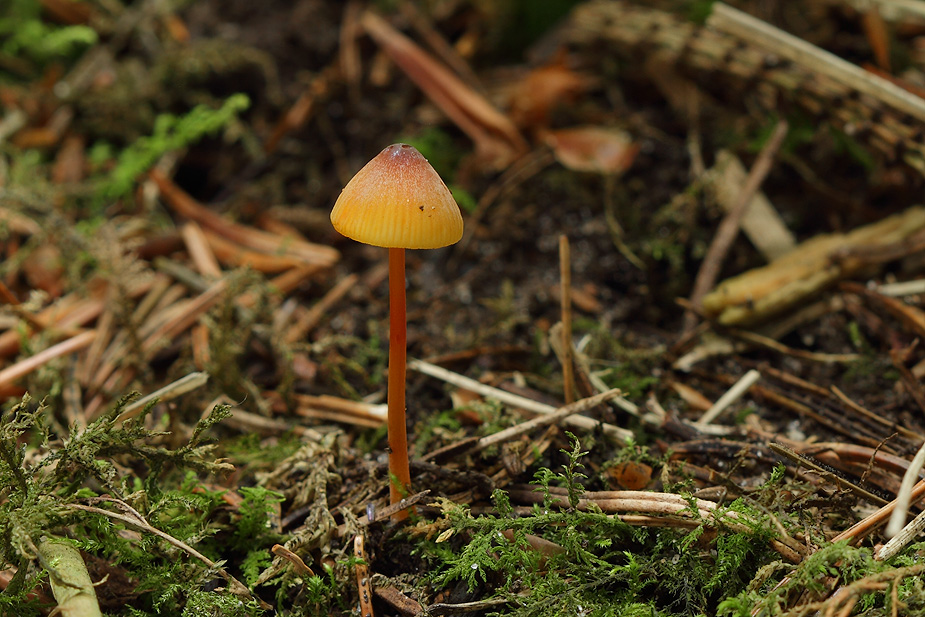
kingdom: Fungi
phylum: Basidiomycota
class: Agaricomycetes
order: Agaricales
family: Mycenaceae
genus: Mycena
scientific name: Mycena crocata
